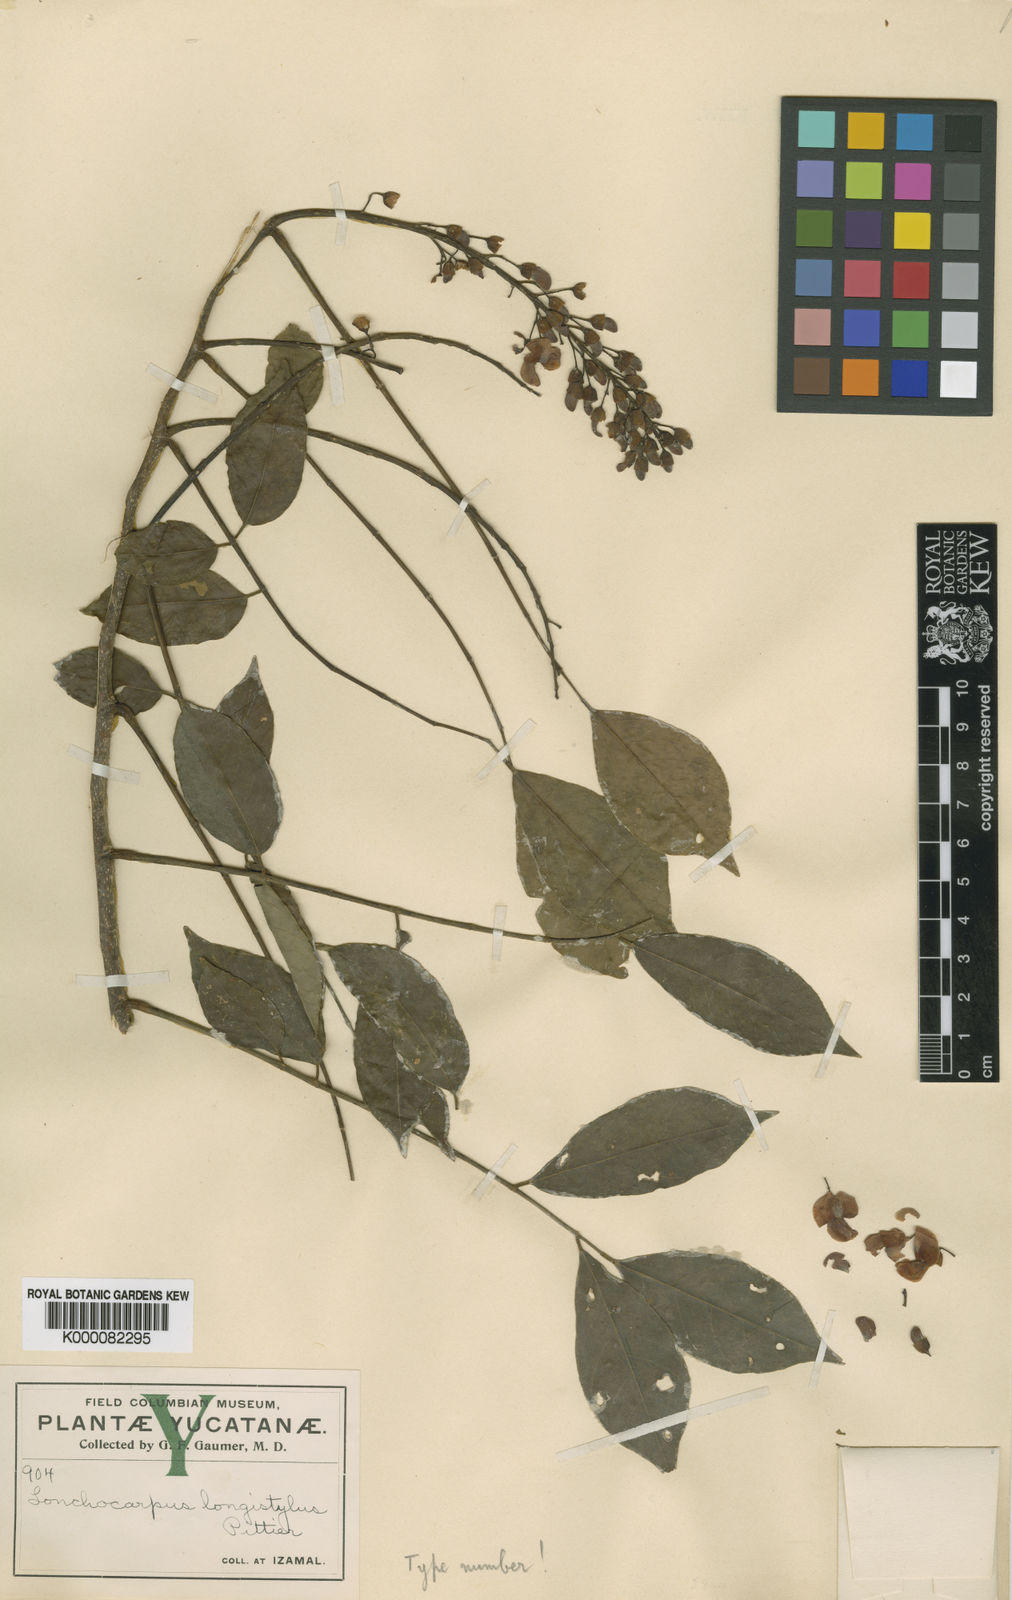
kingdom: Plantae
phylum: Tracheophyta
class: Magnoliopsida
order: Fabales
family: Fabaceae
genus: Lonchocarpus
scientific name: Lonchocarpus longistylus
